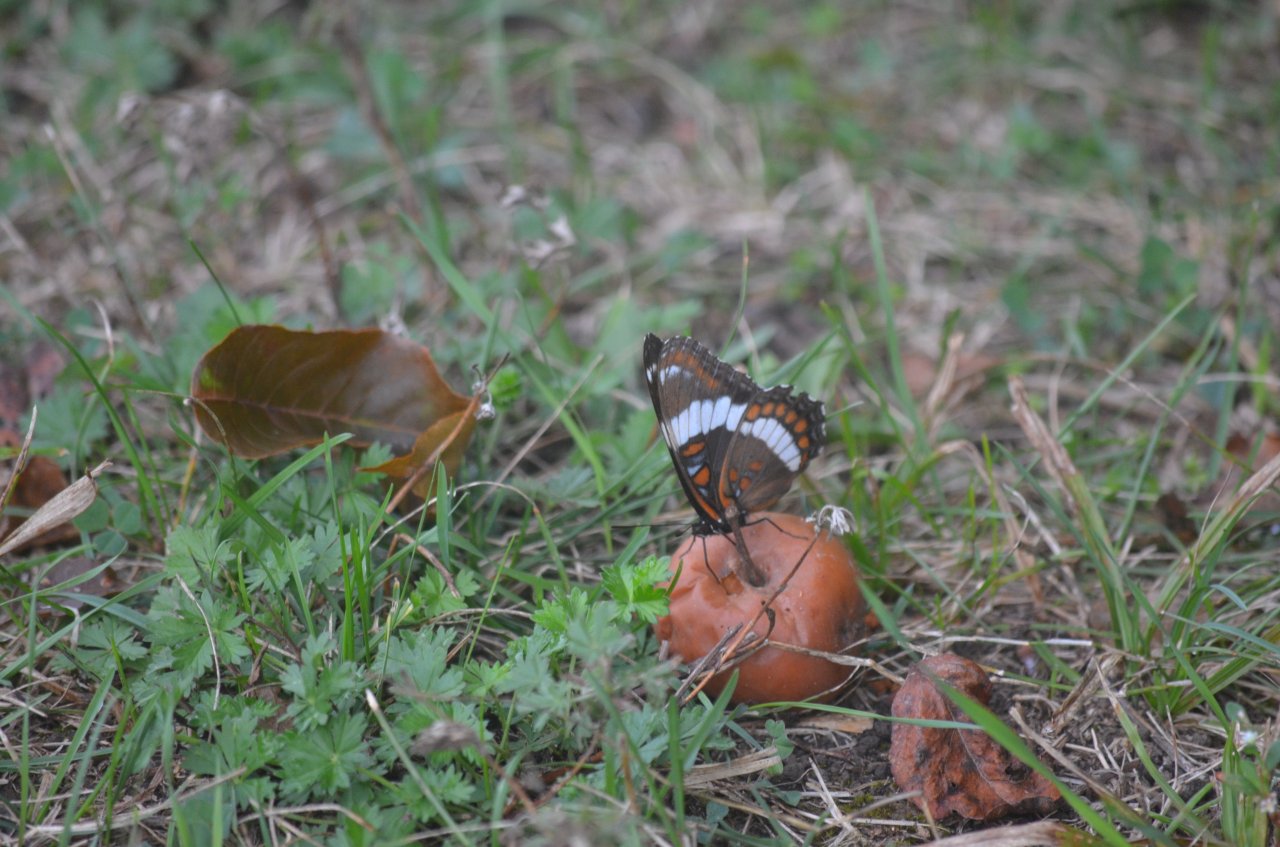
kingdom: Animalia
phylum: Arthropoda
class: Insecta
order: Lepidoptera
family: Nymphalidae
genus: Limenitis
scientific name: Limenitis arthemis
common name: Red-spotted Admiral
